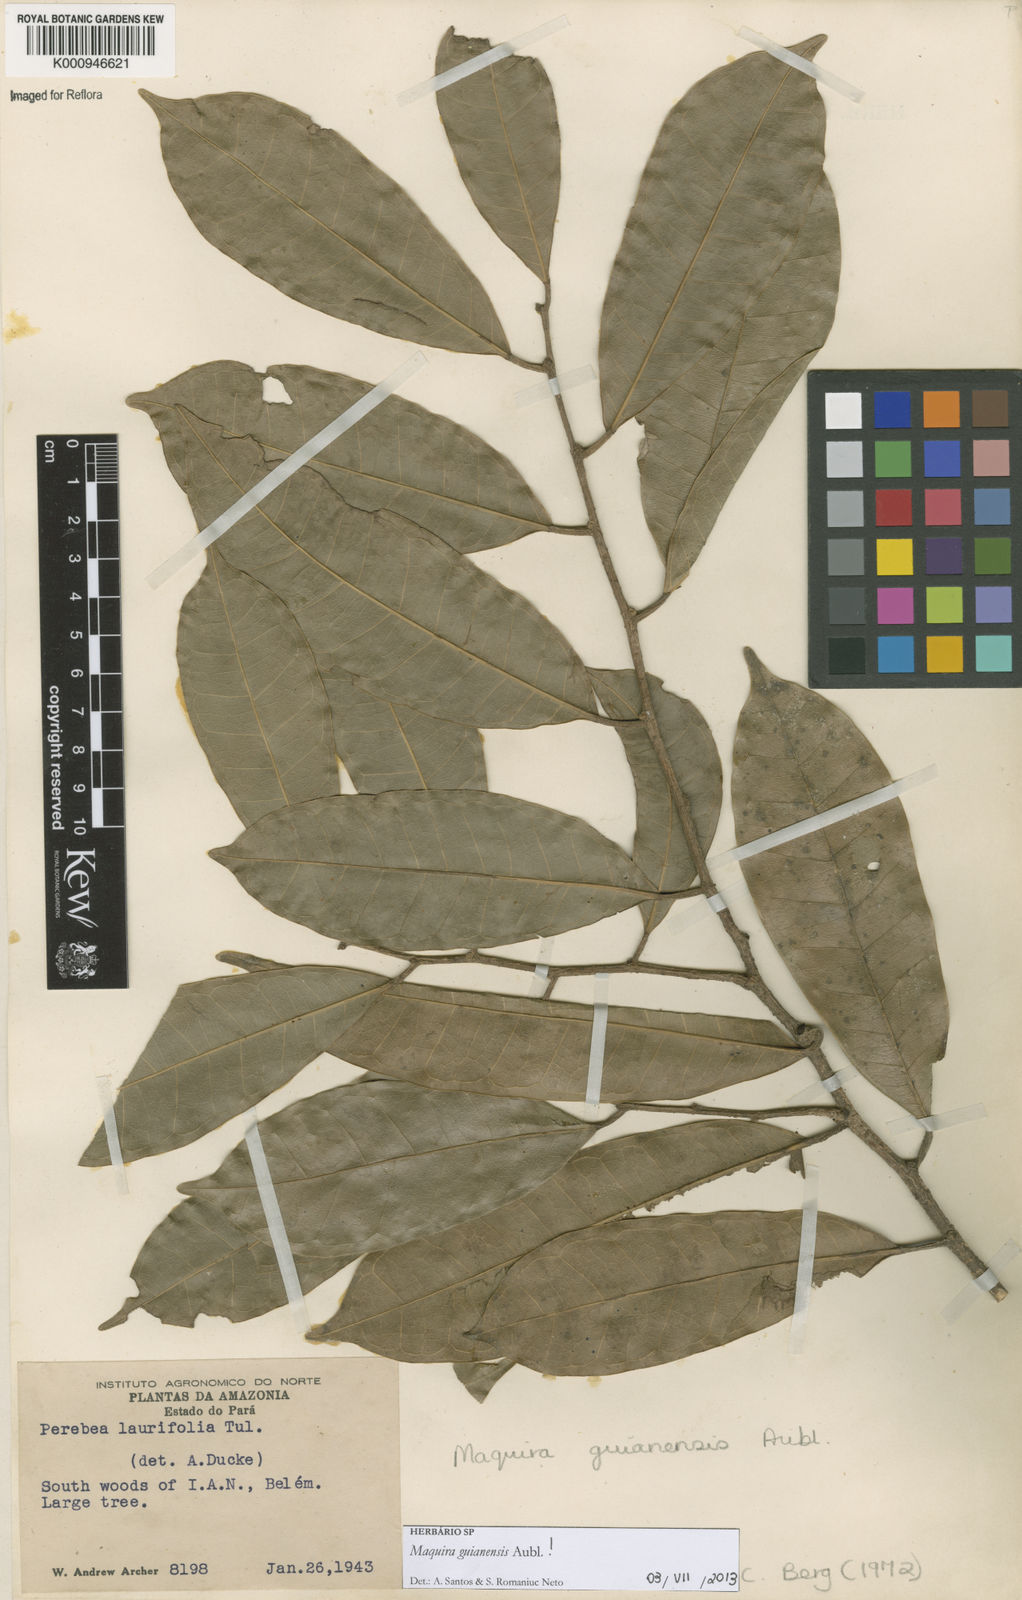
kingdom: Plantae
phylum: Tracheophyta
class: Magnoliopsida
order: Rosales
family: Moraceae
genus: Maquira
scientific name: Maquira guianensis
